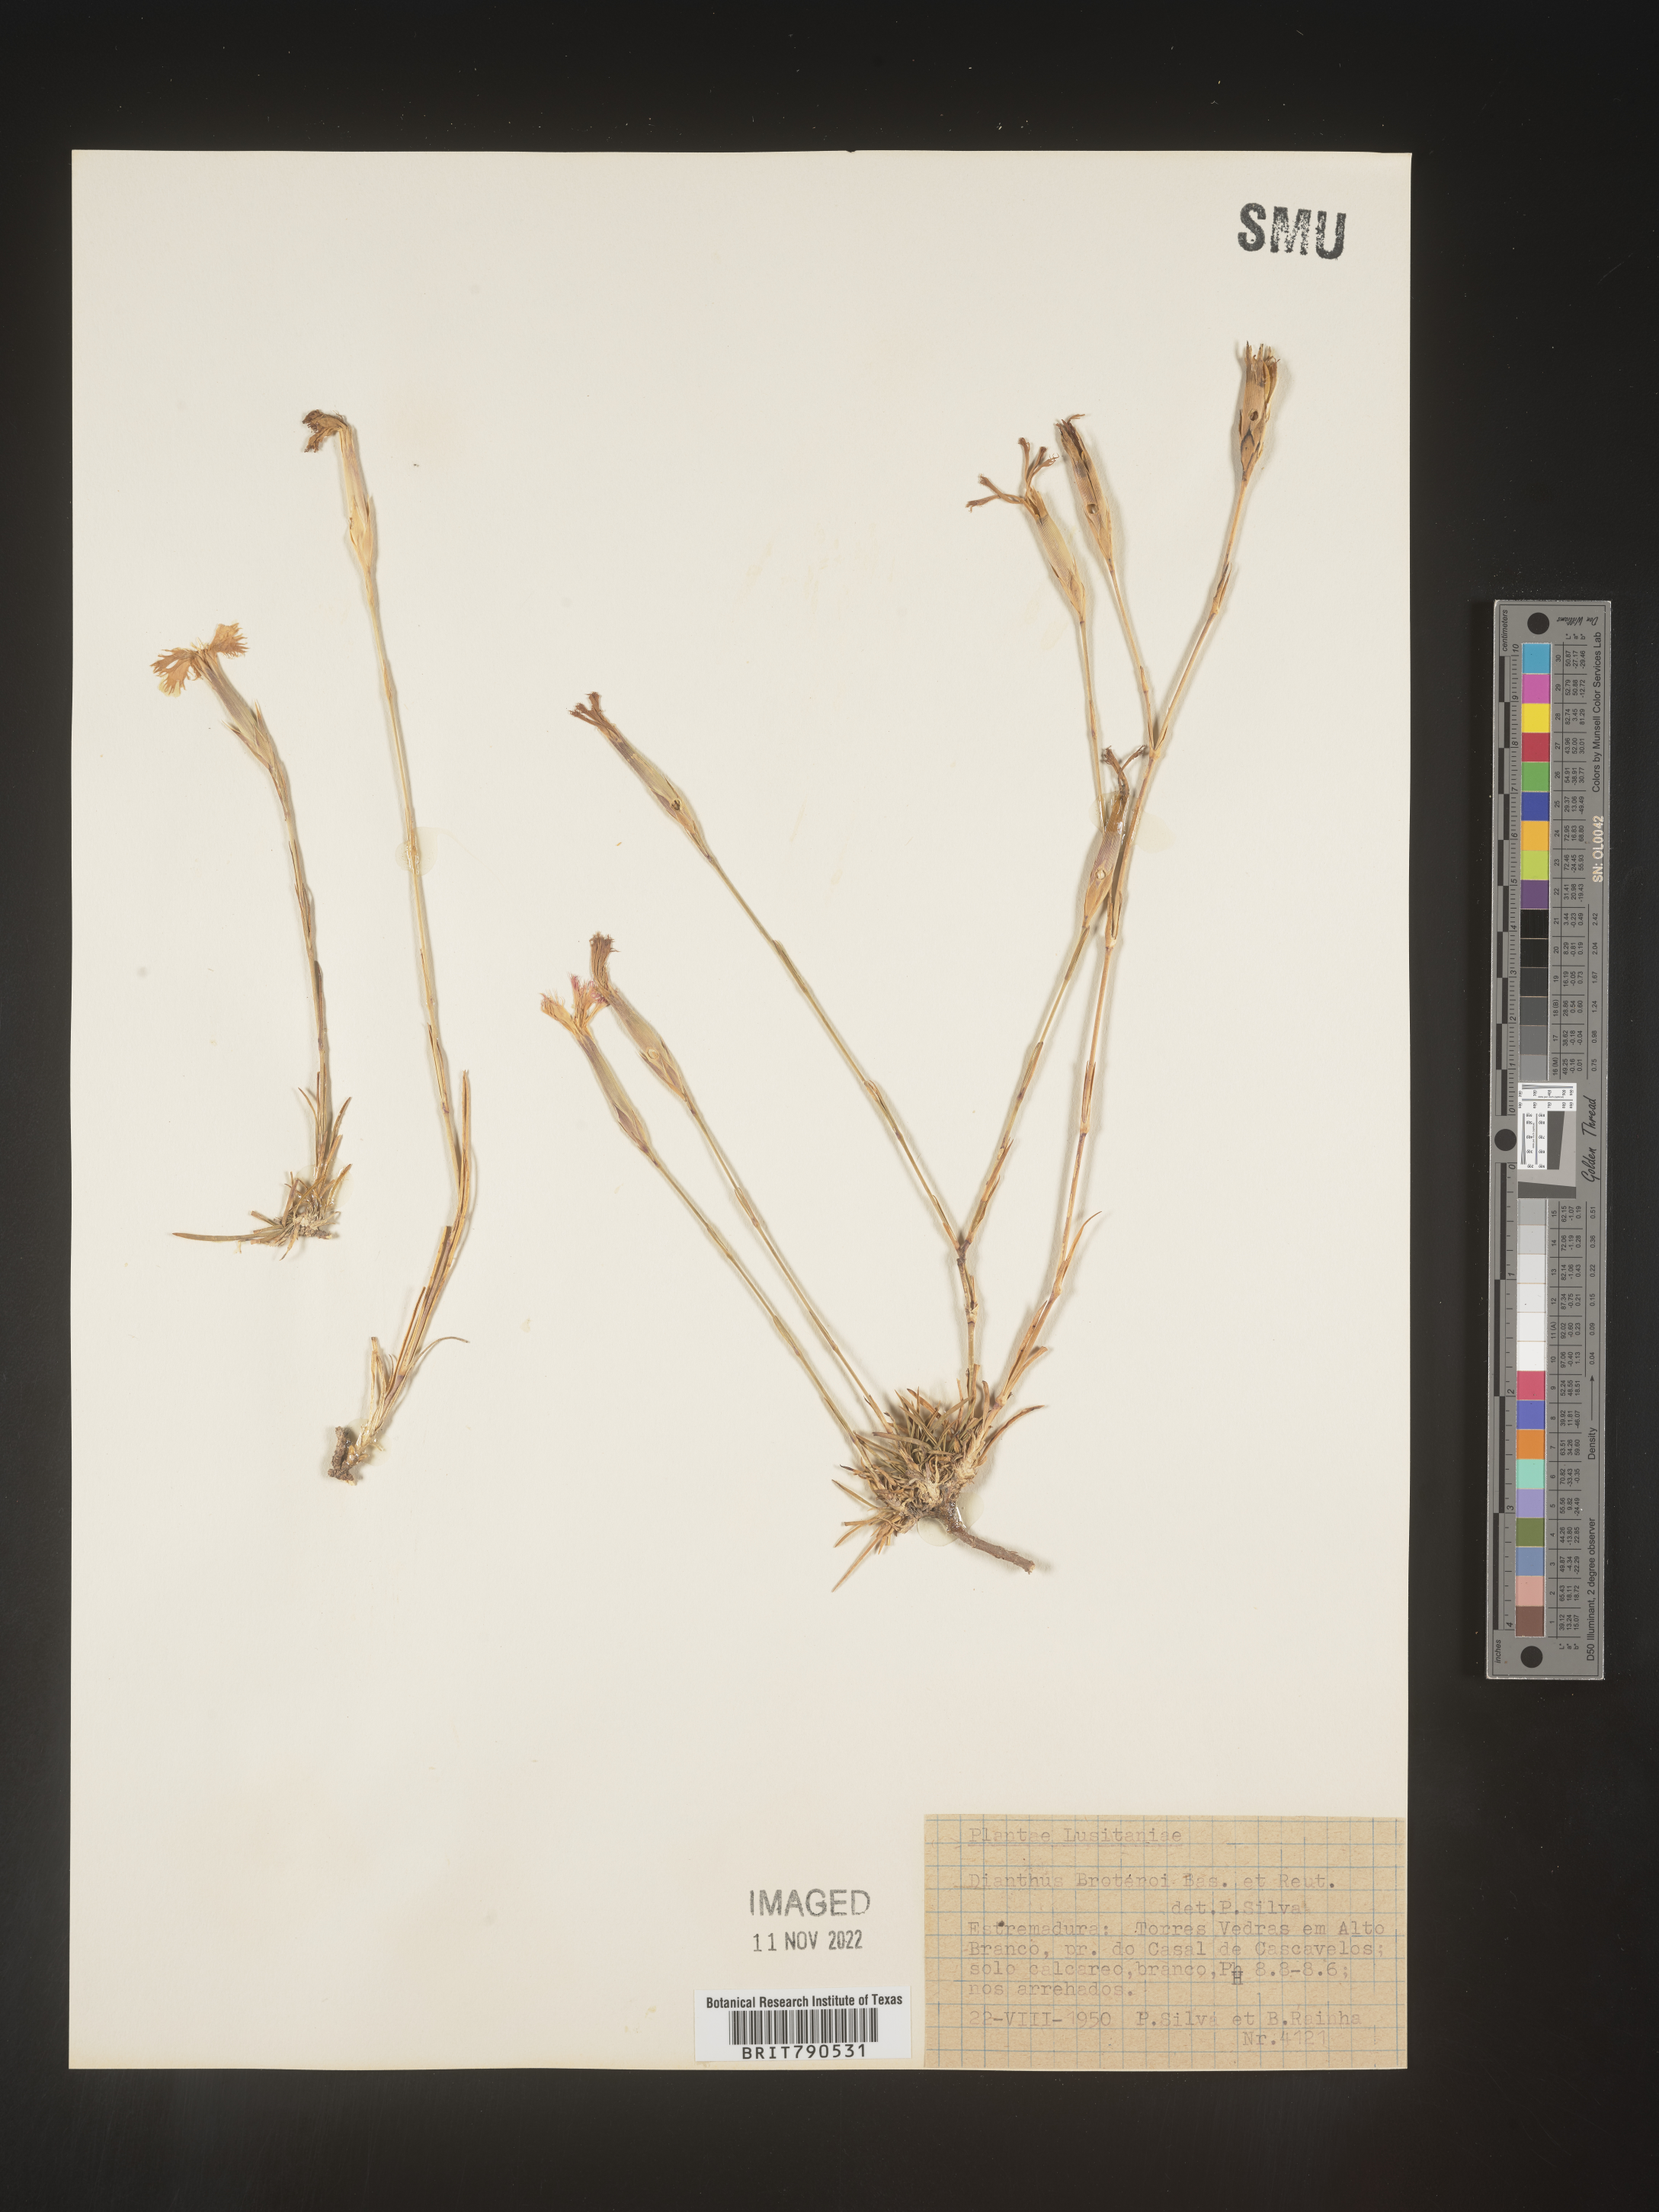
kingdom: Plantae
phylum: Tracheophyta
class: Magnoliopsida
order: Caryophyllales
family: Caryophyllaceae
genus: Dianthus
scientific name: Dianthus
